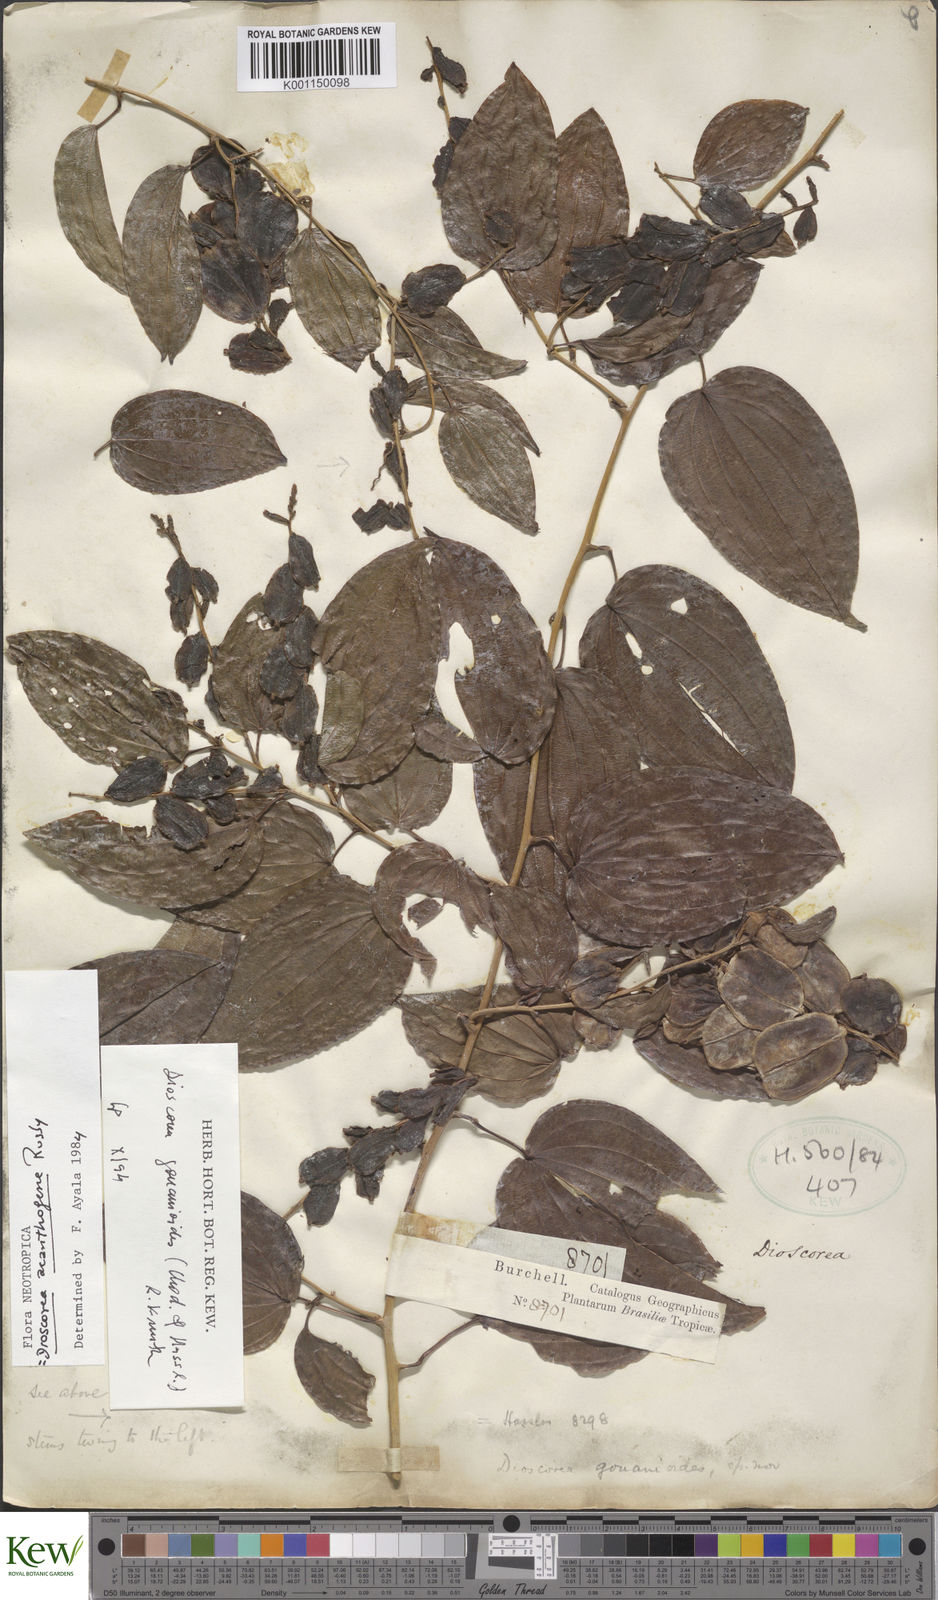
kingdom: Plantae
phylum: Tracheophyta
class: Liliopsida
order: Dioscoreales
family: Dioscoreaceae
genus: Dioscorea
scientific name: Dioscorea acanthogene
